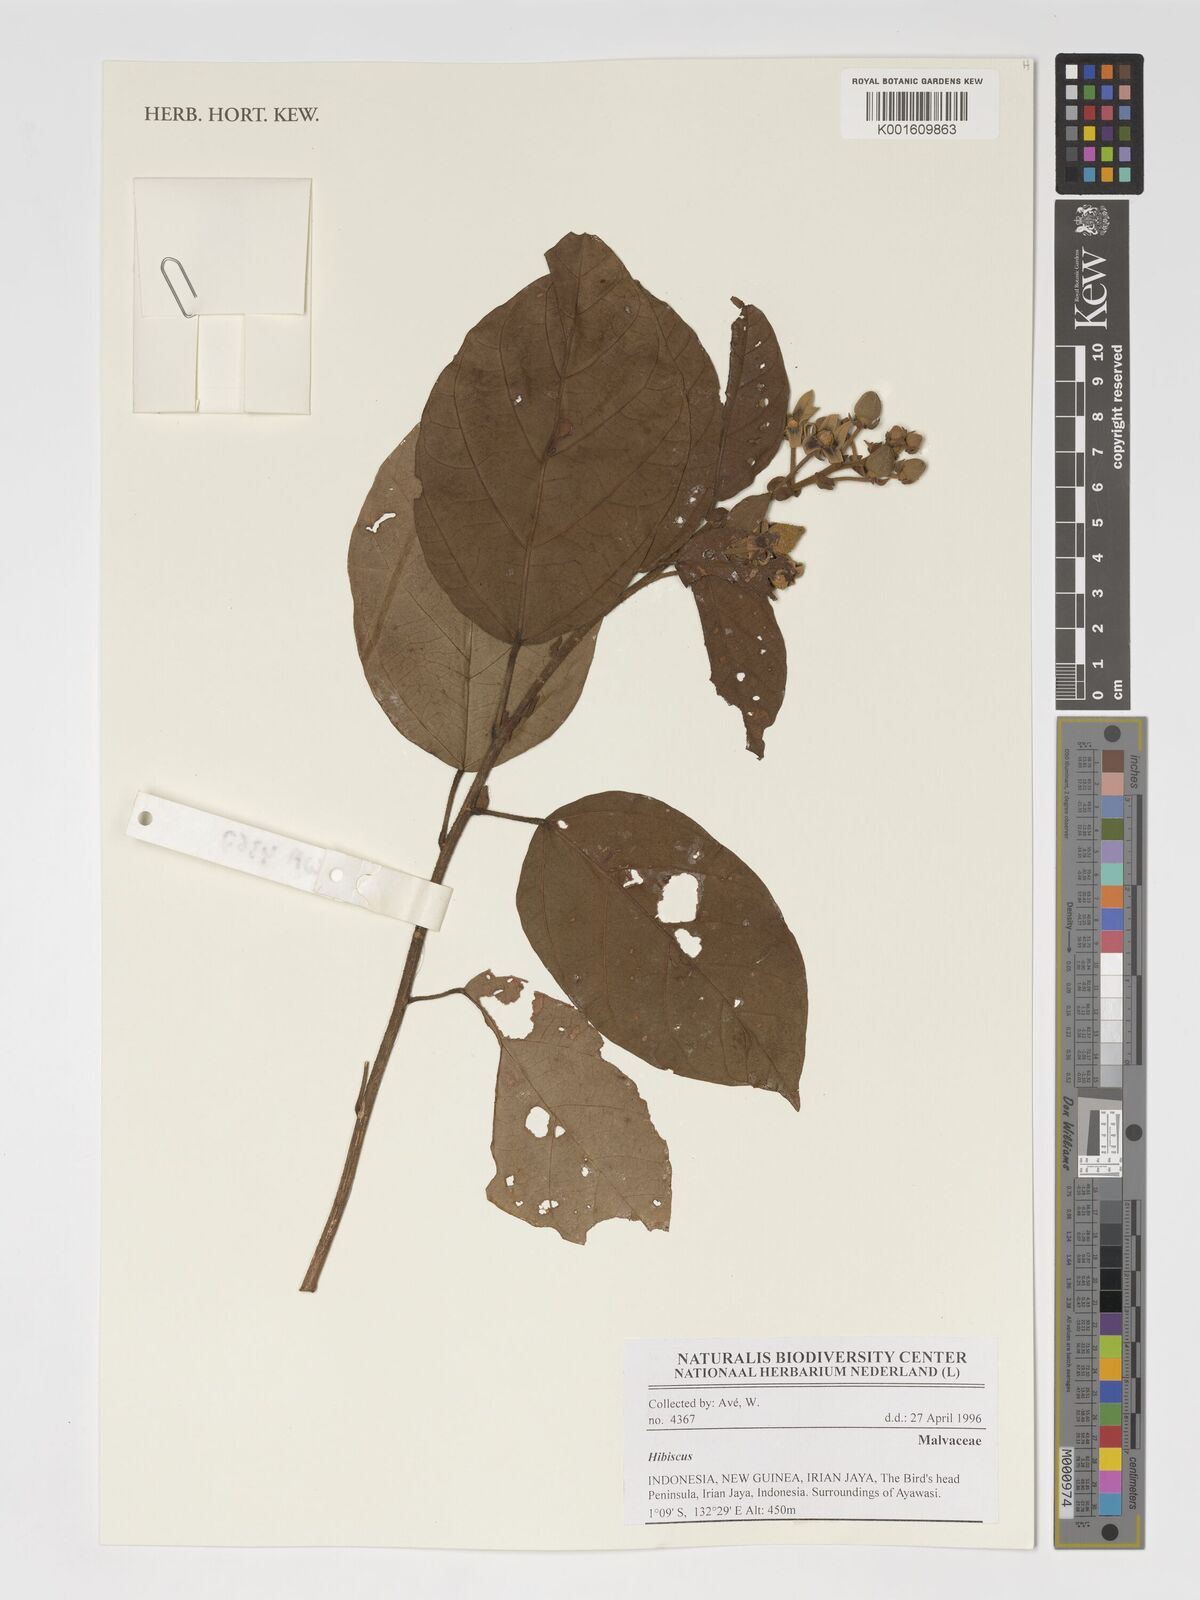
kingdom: Plantae
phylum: Tracheophyta
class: Magnoliopsida
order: Malvales
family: Malvaceae
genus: Hibiscus
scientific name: Hibiscus
